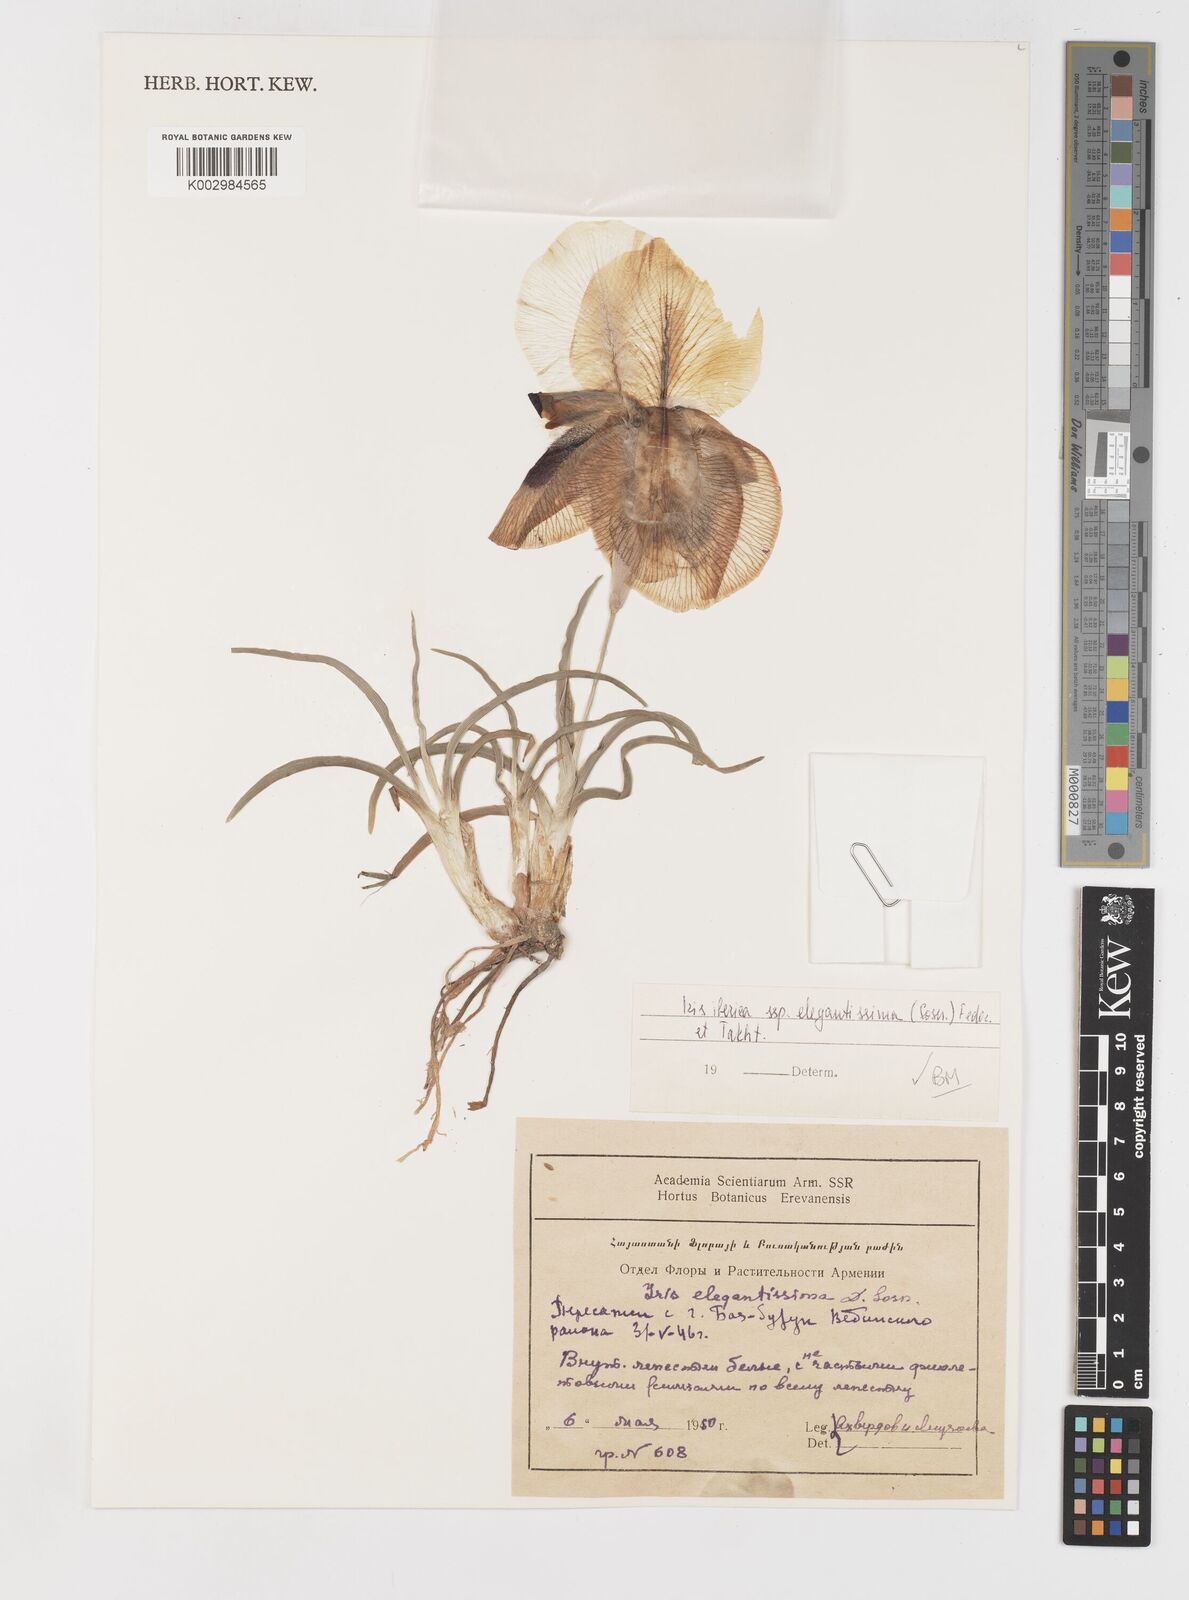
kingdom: Plantae
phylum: Tracheophyta
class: Liliopsida
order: Asparagales
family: Iridaceae
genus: Iris
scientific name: Iris iberica
